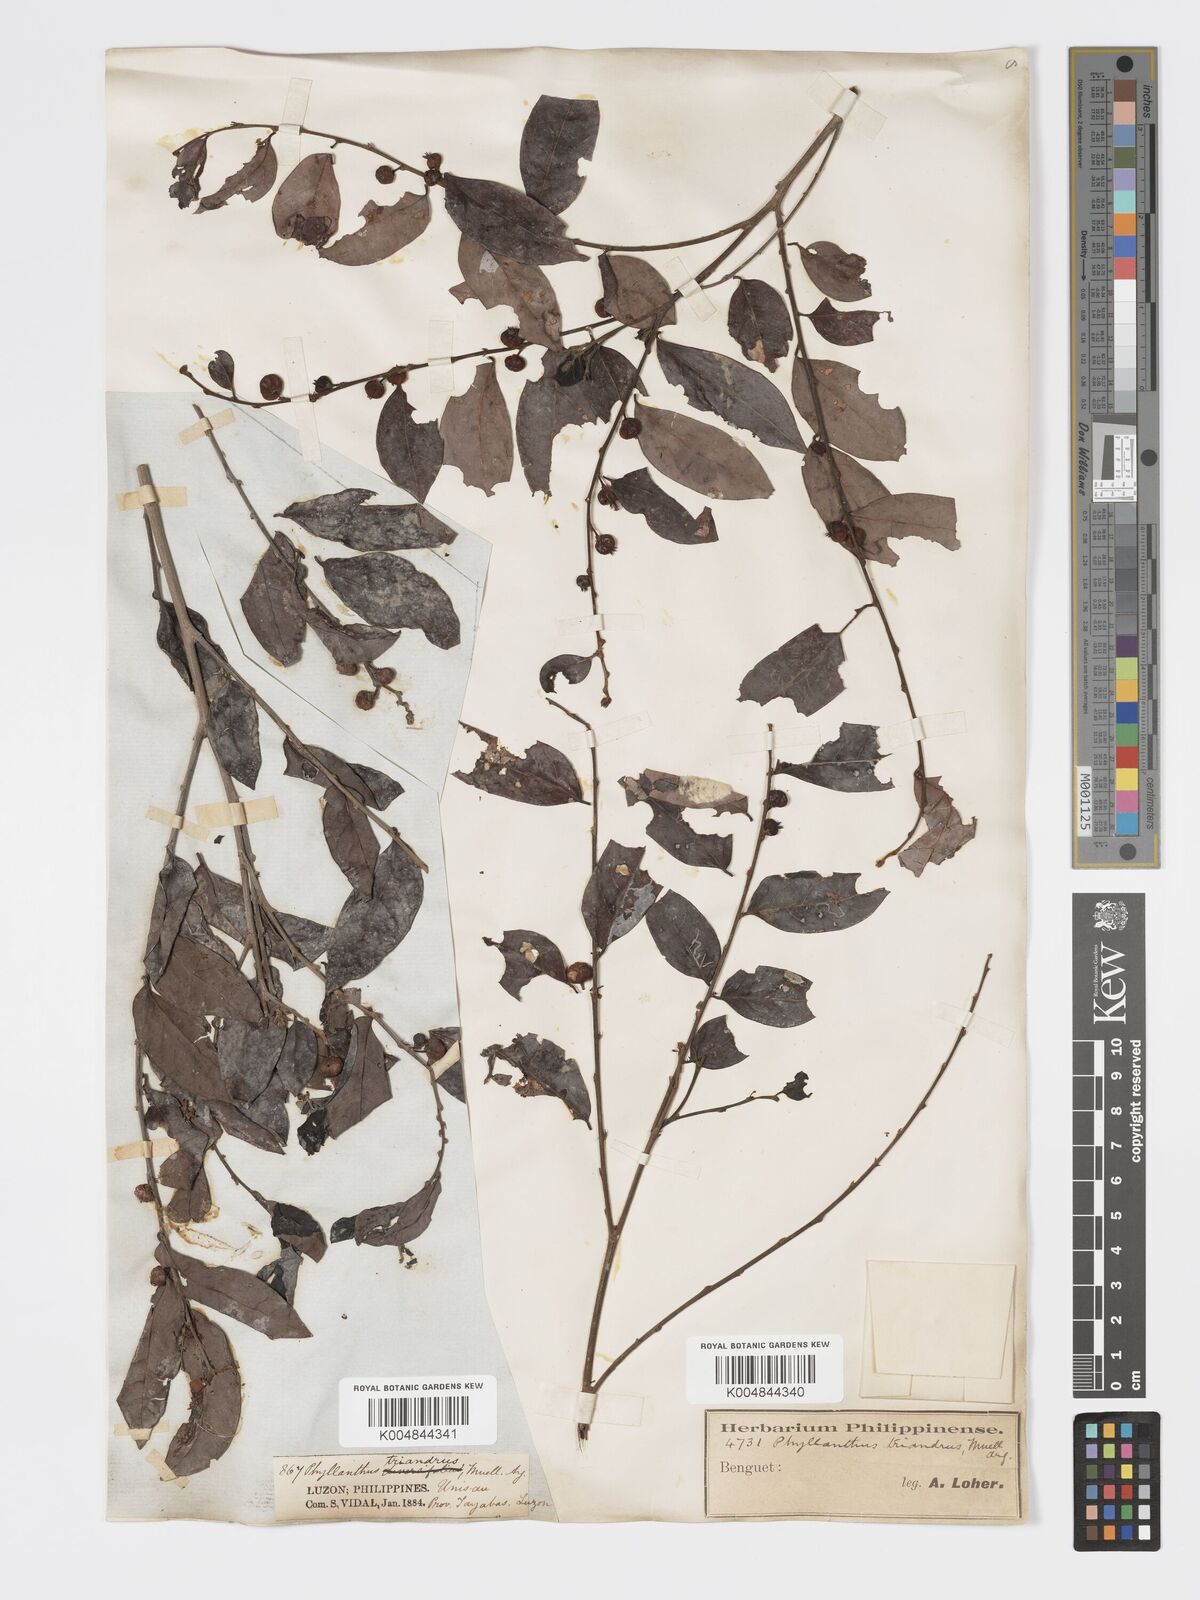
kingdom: Plantae
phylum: Tracheophyta
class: Magnoliopsida
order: Malpighiales
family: Phyllanthaceae
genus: Glochidion
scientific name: Glochidion triandrum
